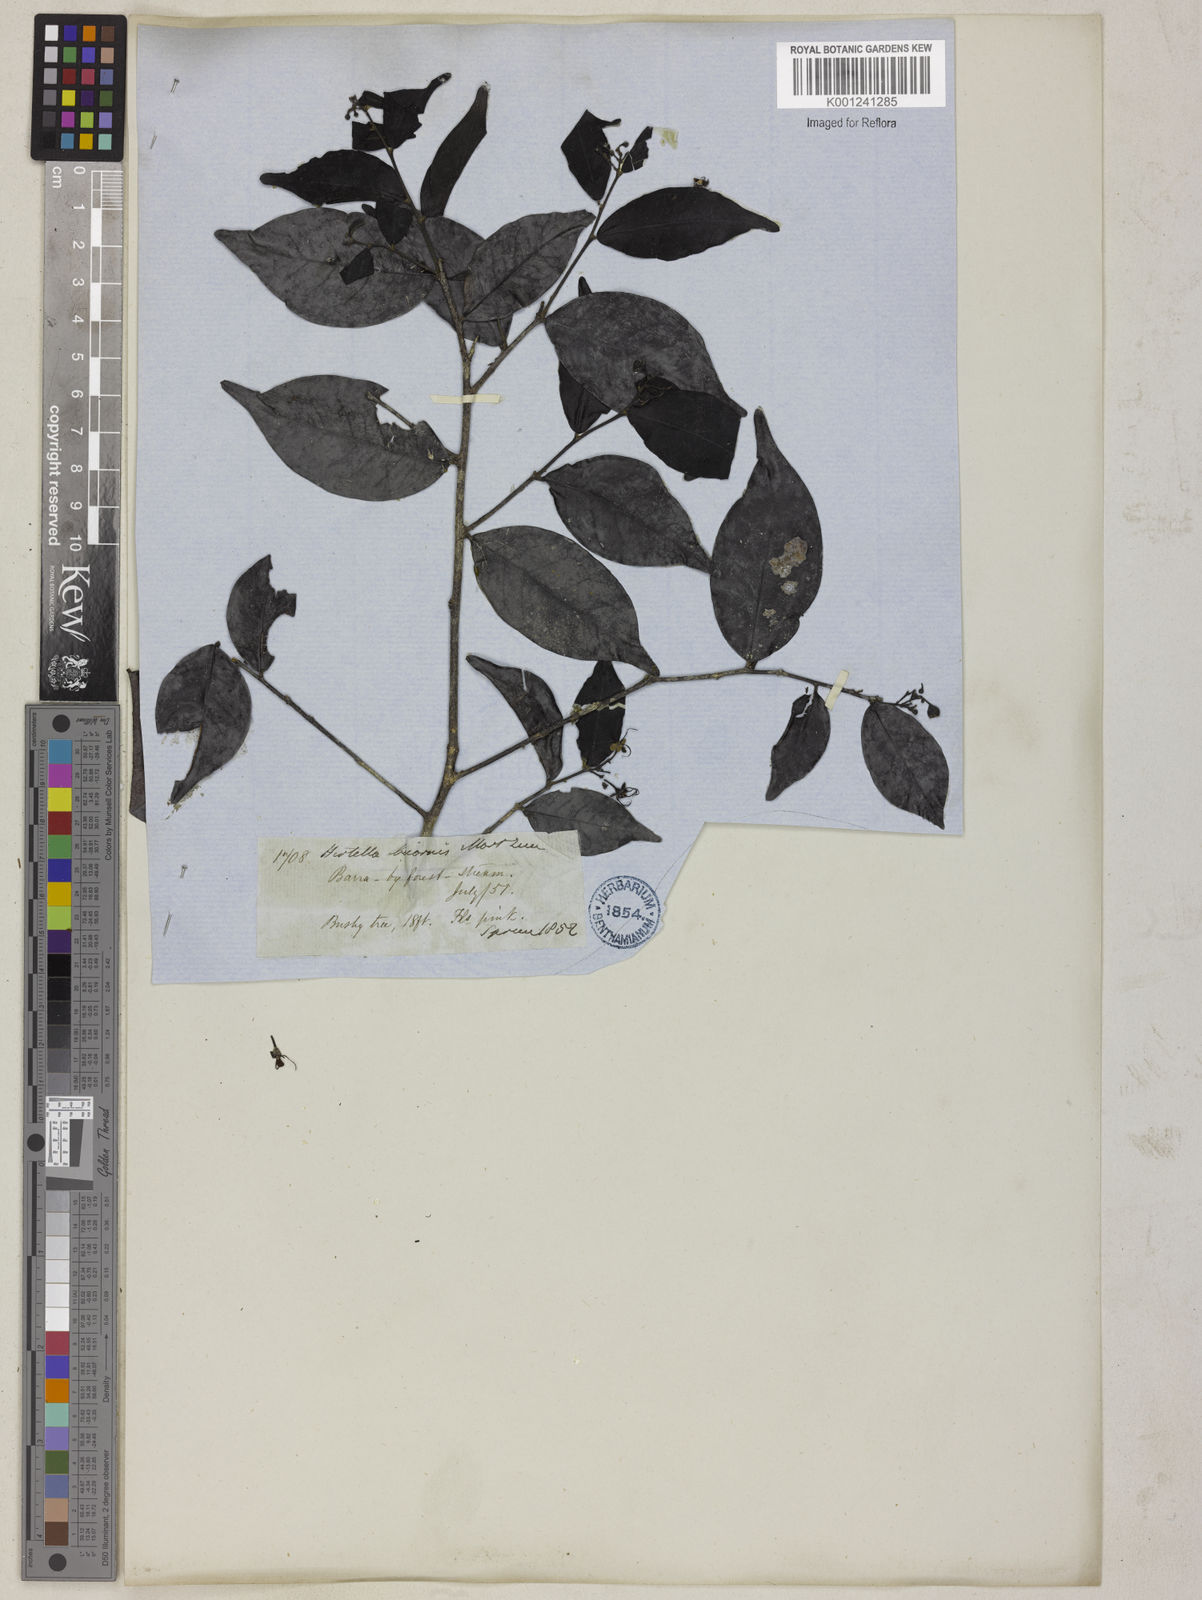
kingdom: Plantae
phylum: Tracheophyta
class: Magnoliopsida
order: Malpighiales
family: Chrysobalanaceae
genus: Hirtella
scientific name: Hirtella bicornis
